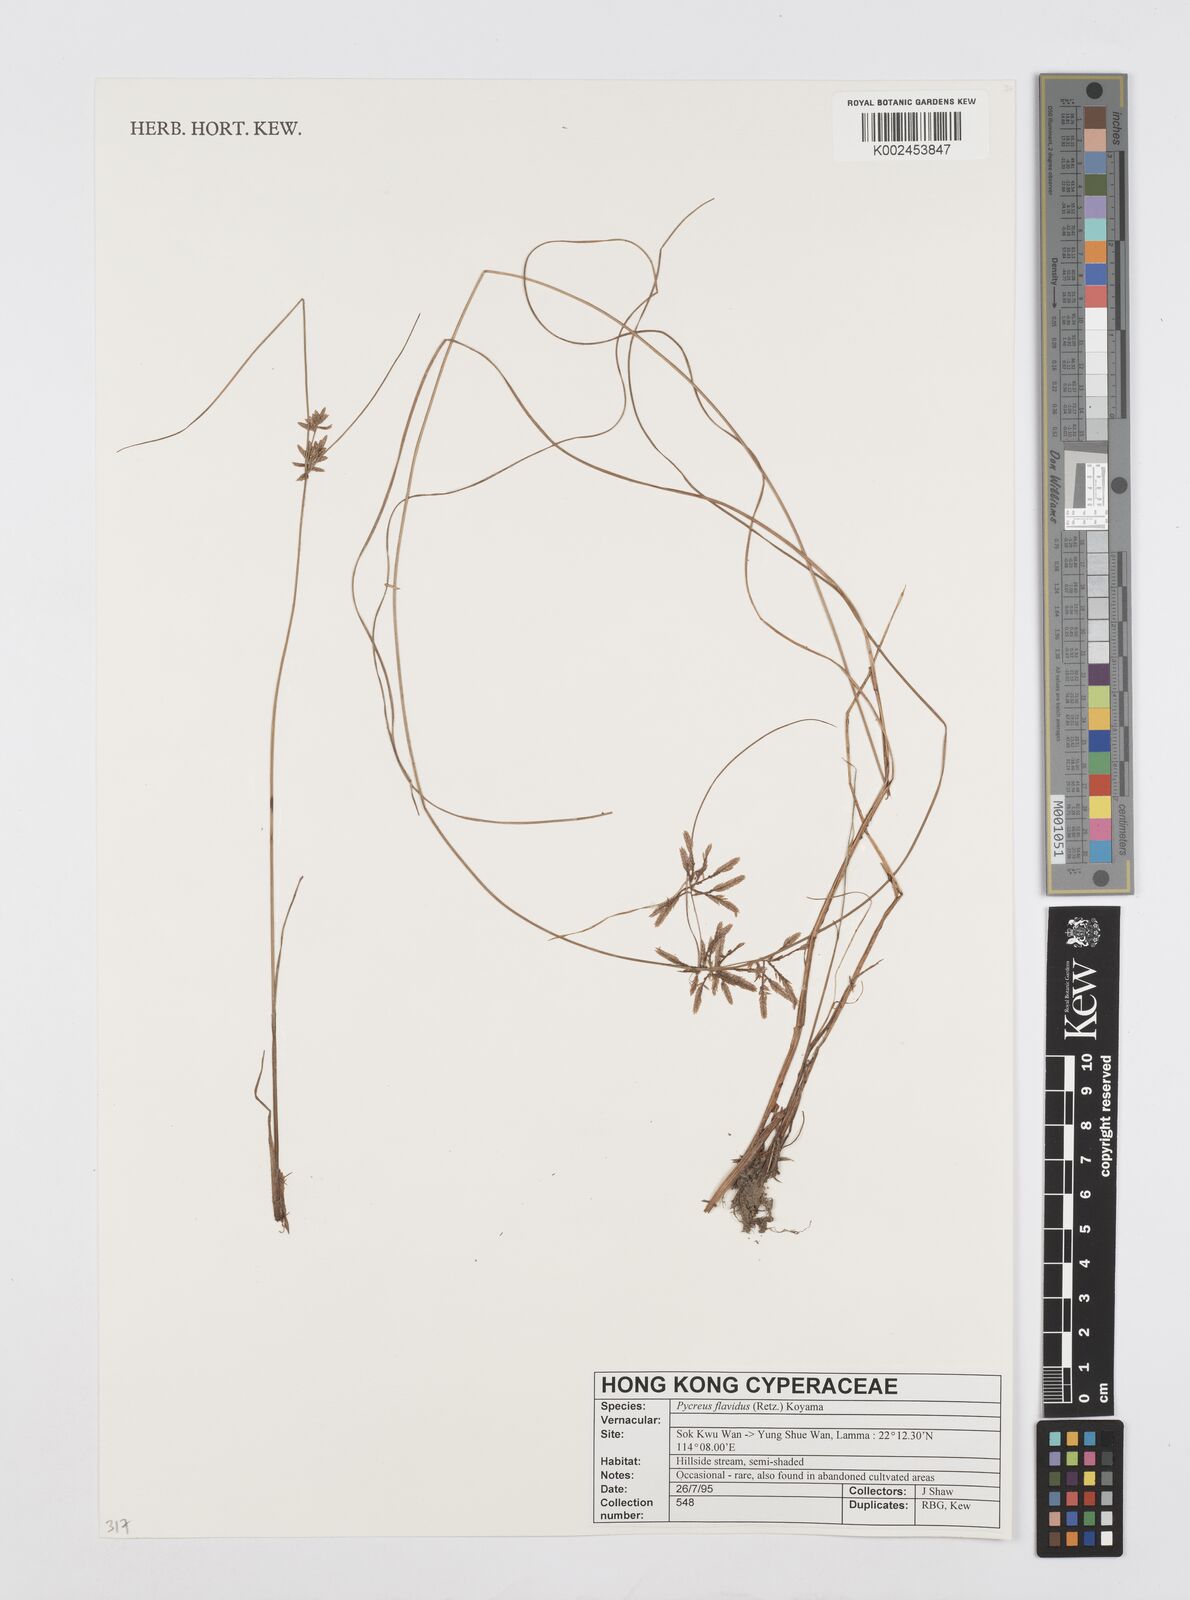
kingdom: Plantae
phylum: Tracheophyta
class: Liliopsida
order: Poales
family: Cyperaceae
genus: Cyperus
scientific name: Cyperus flavidus
